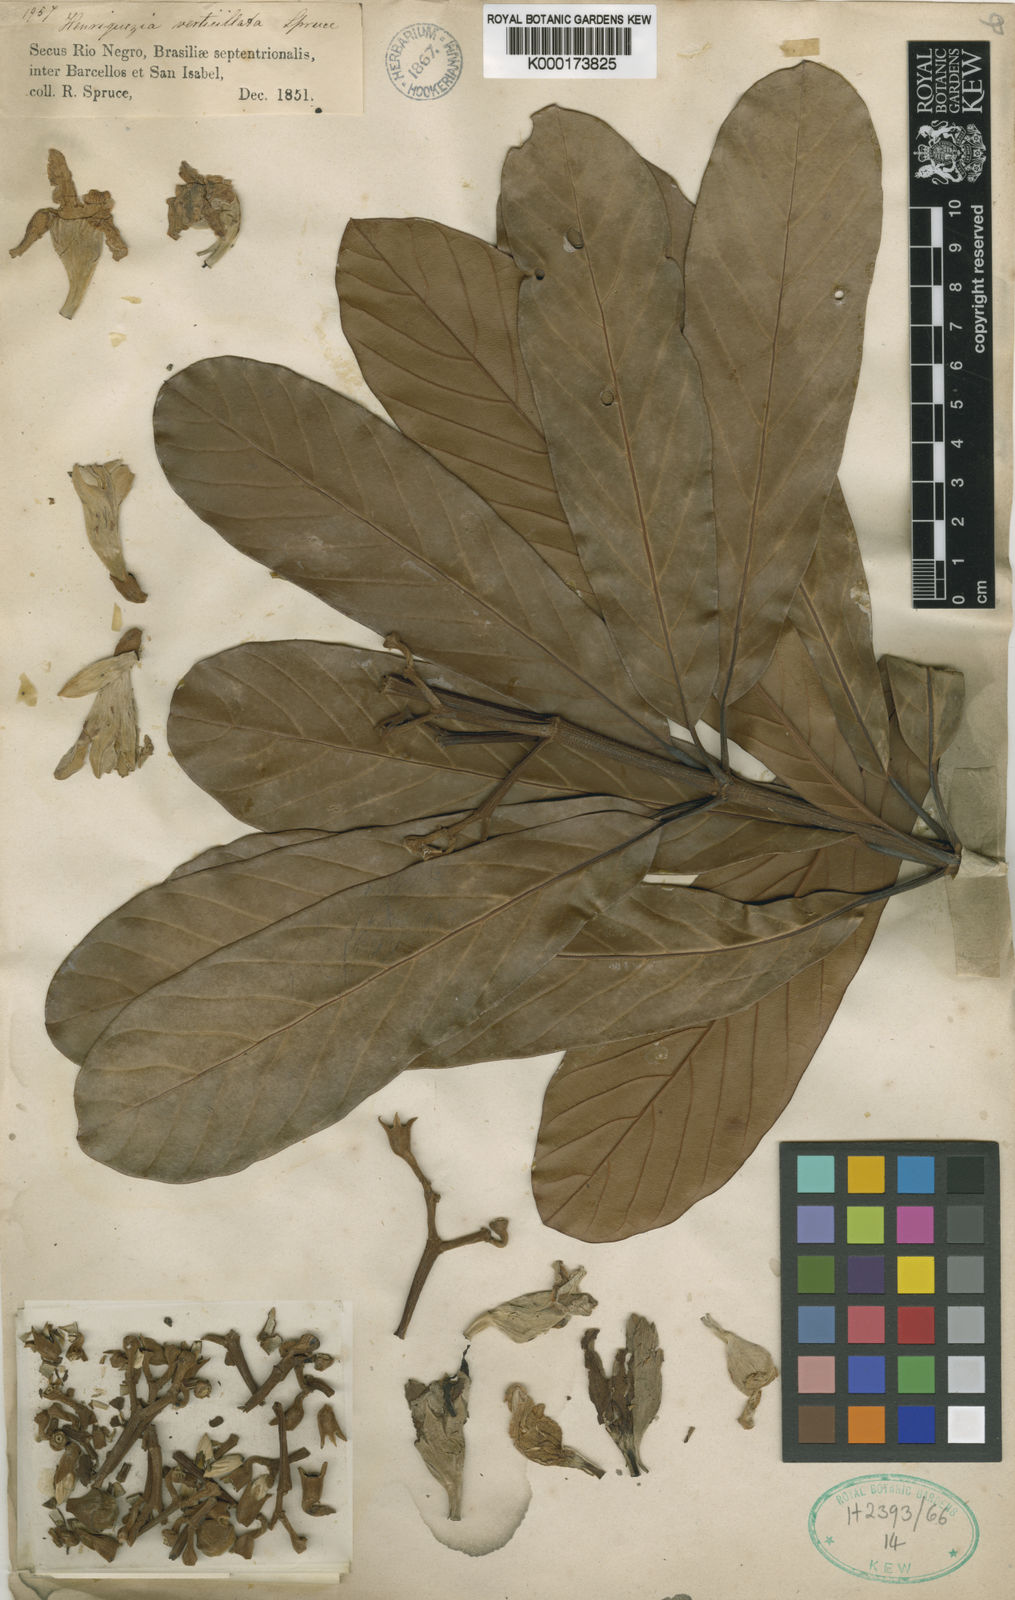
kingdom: Plantae
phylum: Tracheophyta
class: Magnoliopsida
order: Gentianales
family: Rubiaceae
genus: Henriquezia
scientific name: Henriquezia verticillata
